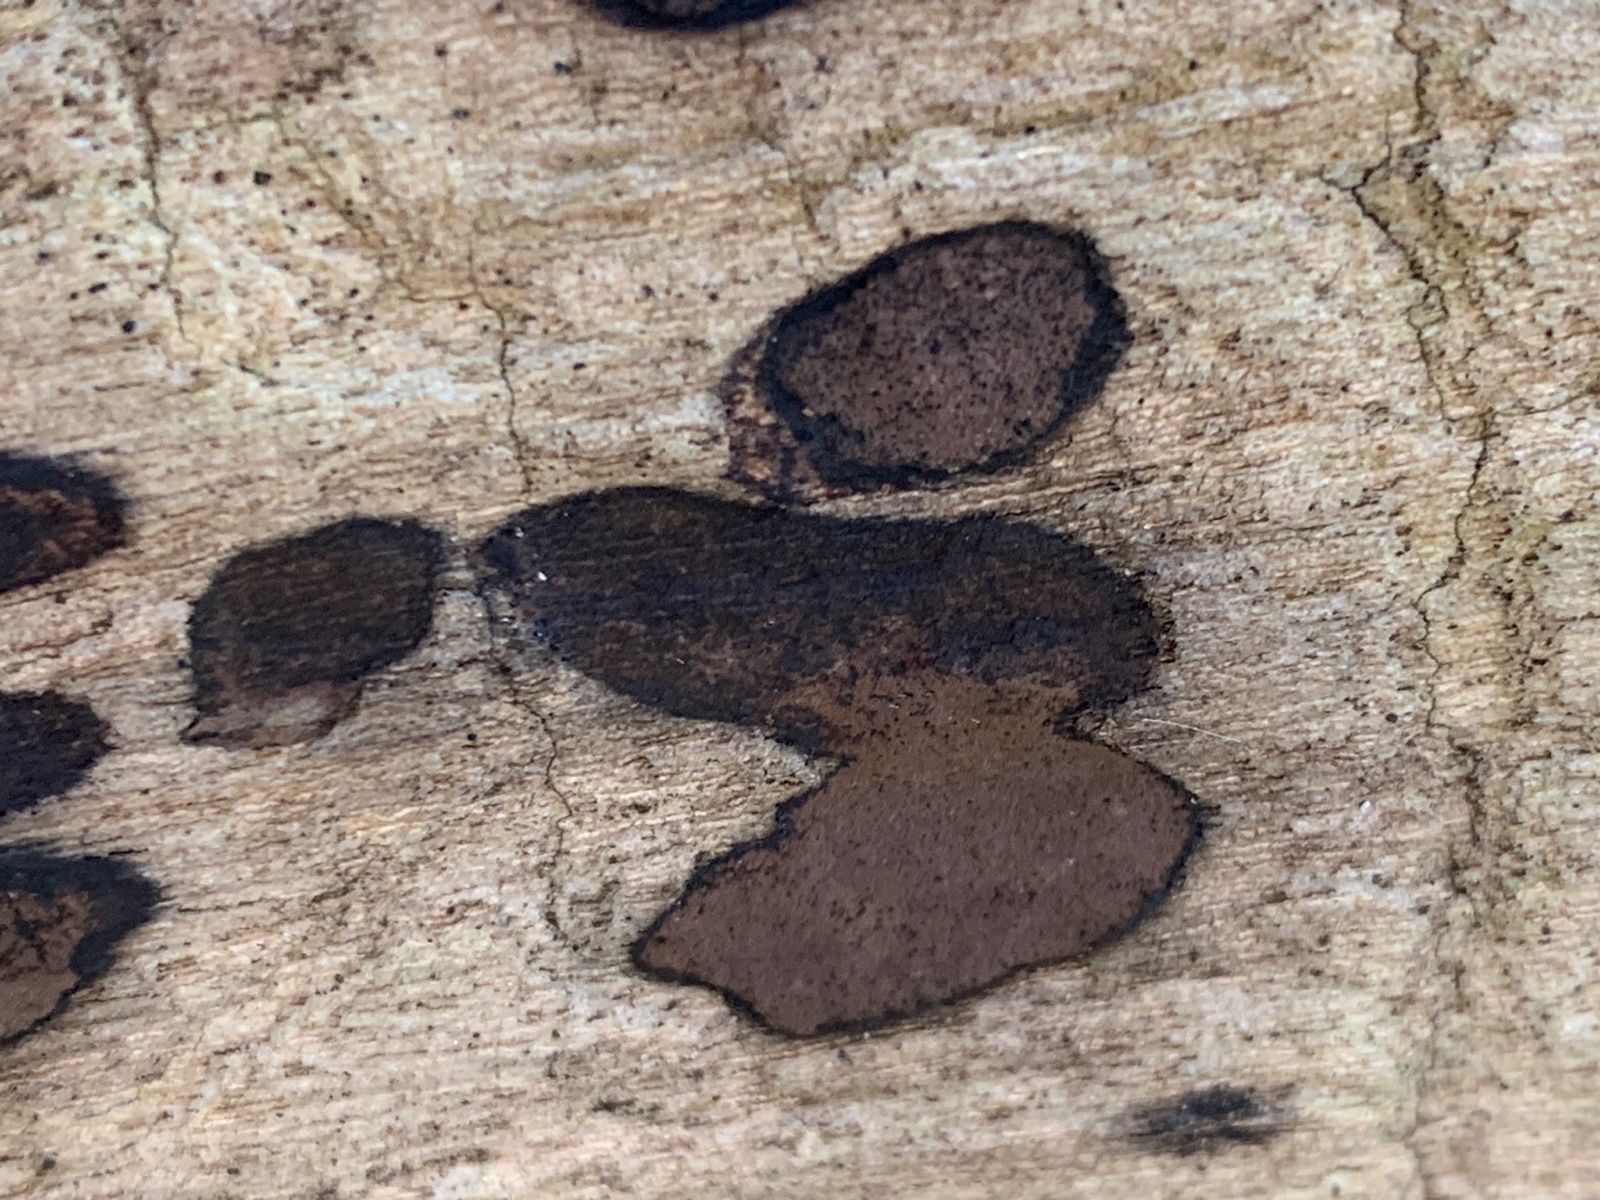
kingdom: Fungi
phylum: Ascomycota
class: Sordariomycetes
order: Xylariales
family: Hypoxylaceae
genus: Hypoxylon
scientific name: Hypoxylon petriniae
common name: nedsænket kulbær
